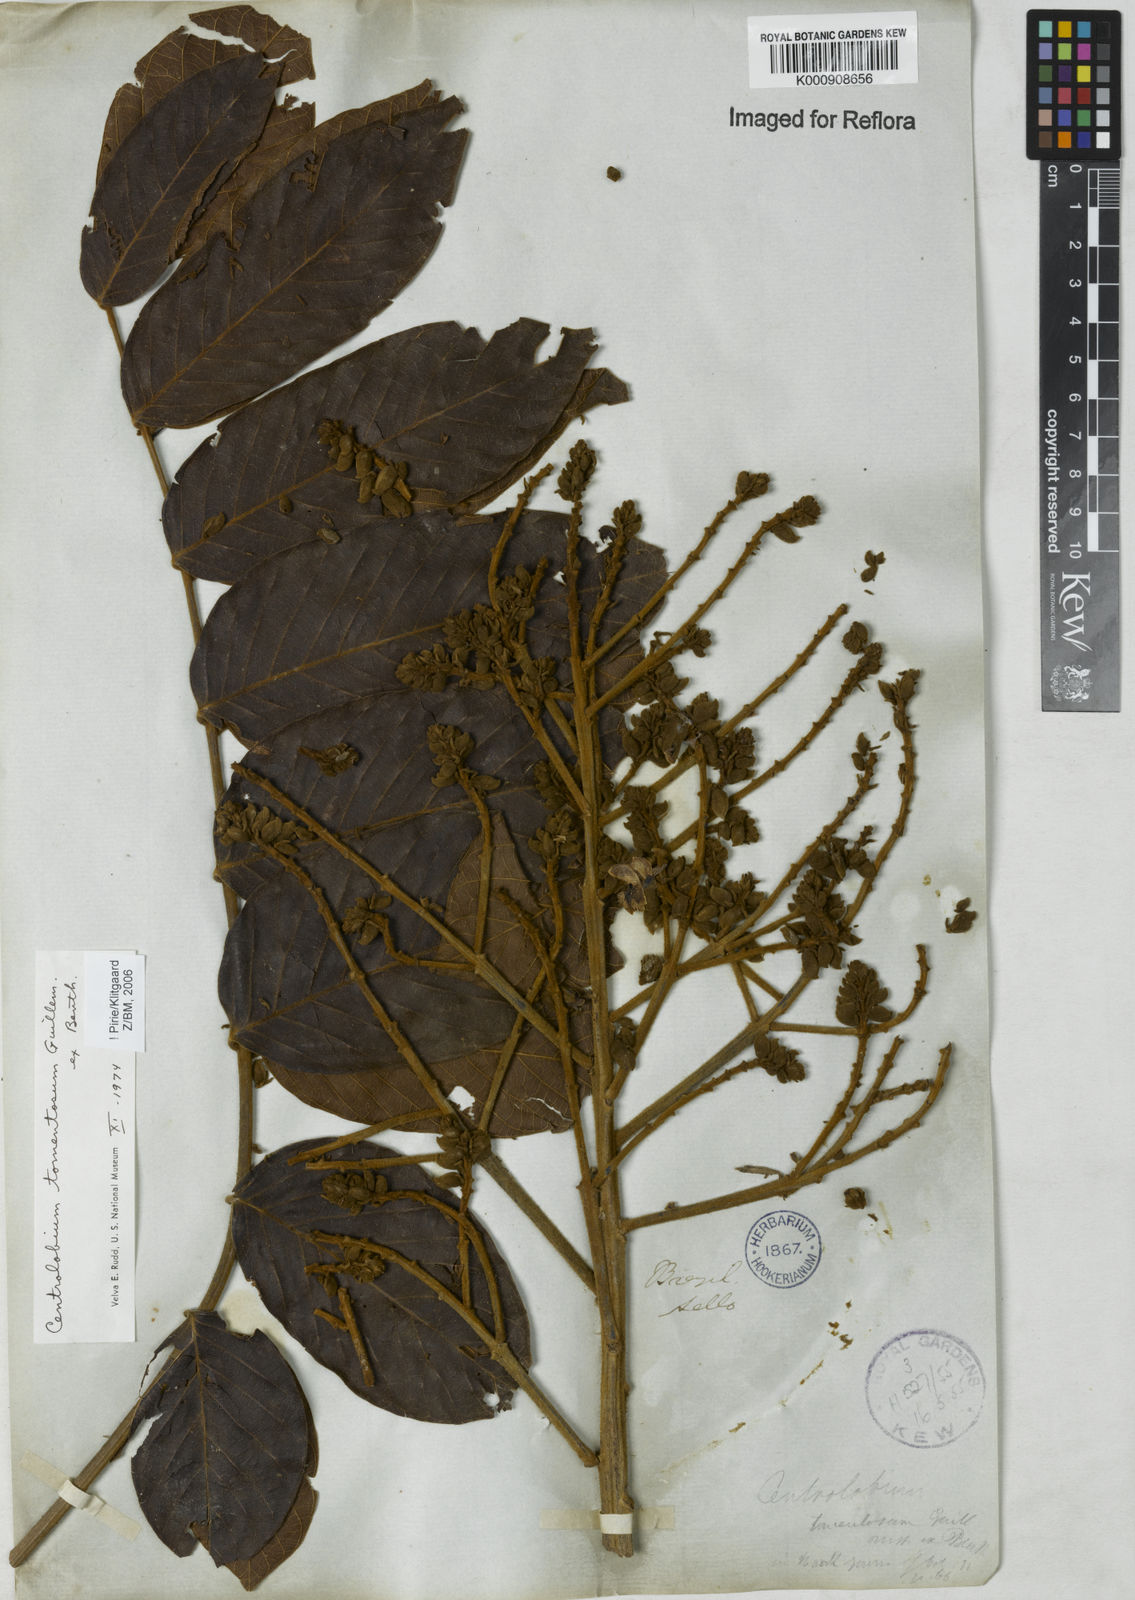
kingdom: Plantae
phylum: Tracheophyta
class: Magnoliopsida
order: Fabales
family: Fabaceae
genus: Centrolobium
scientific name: Centrolobium tomentosum
